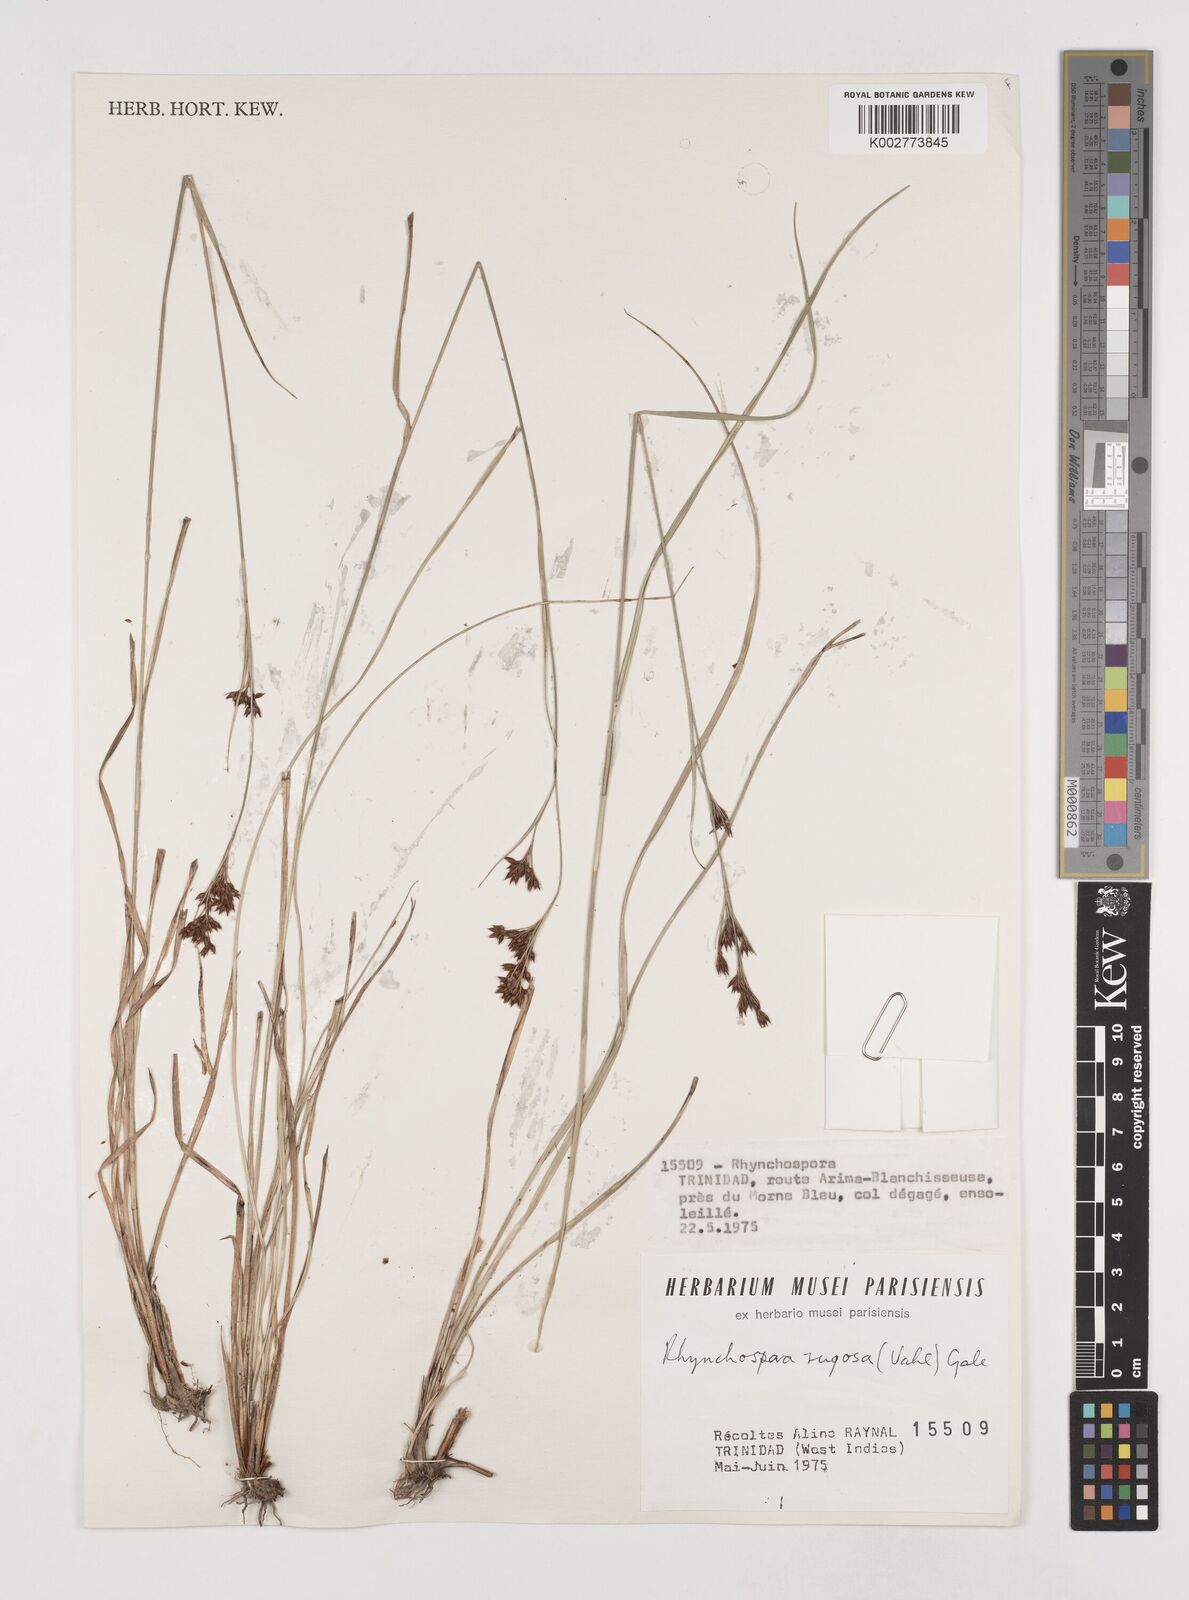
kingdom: Plantae
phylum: Tracheophyta
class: Liliopsida
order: Poales
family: Cyperaceae
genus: Rhynchospora
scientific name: Rhynchospora rugosa
